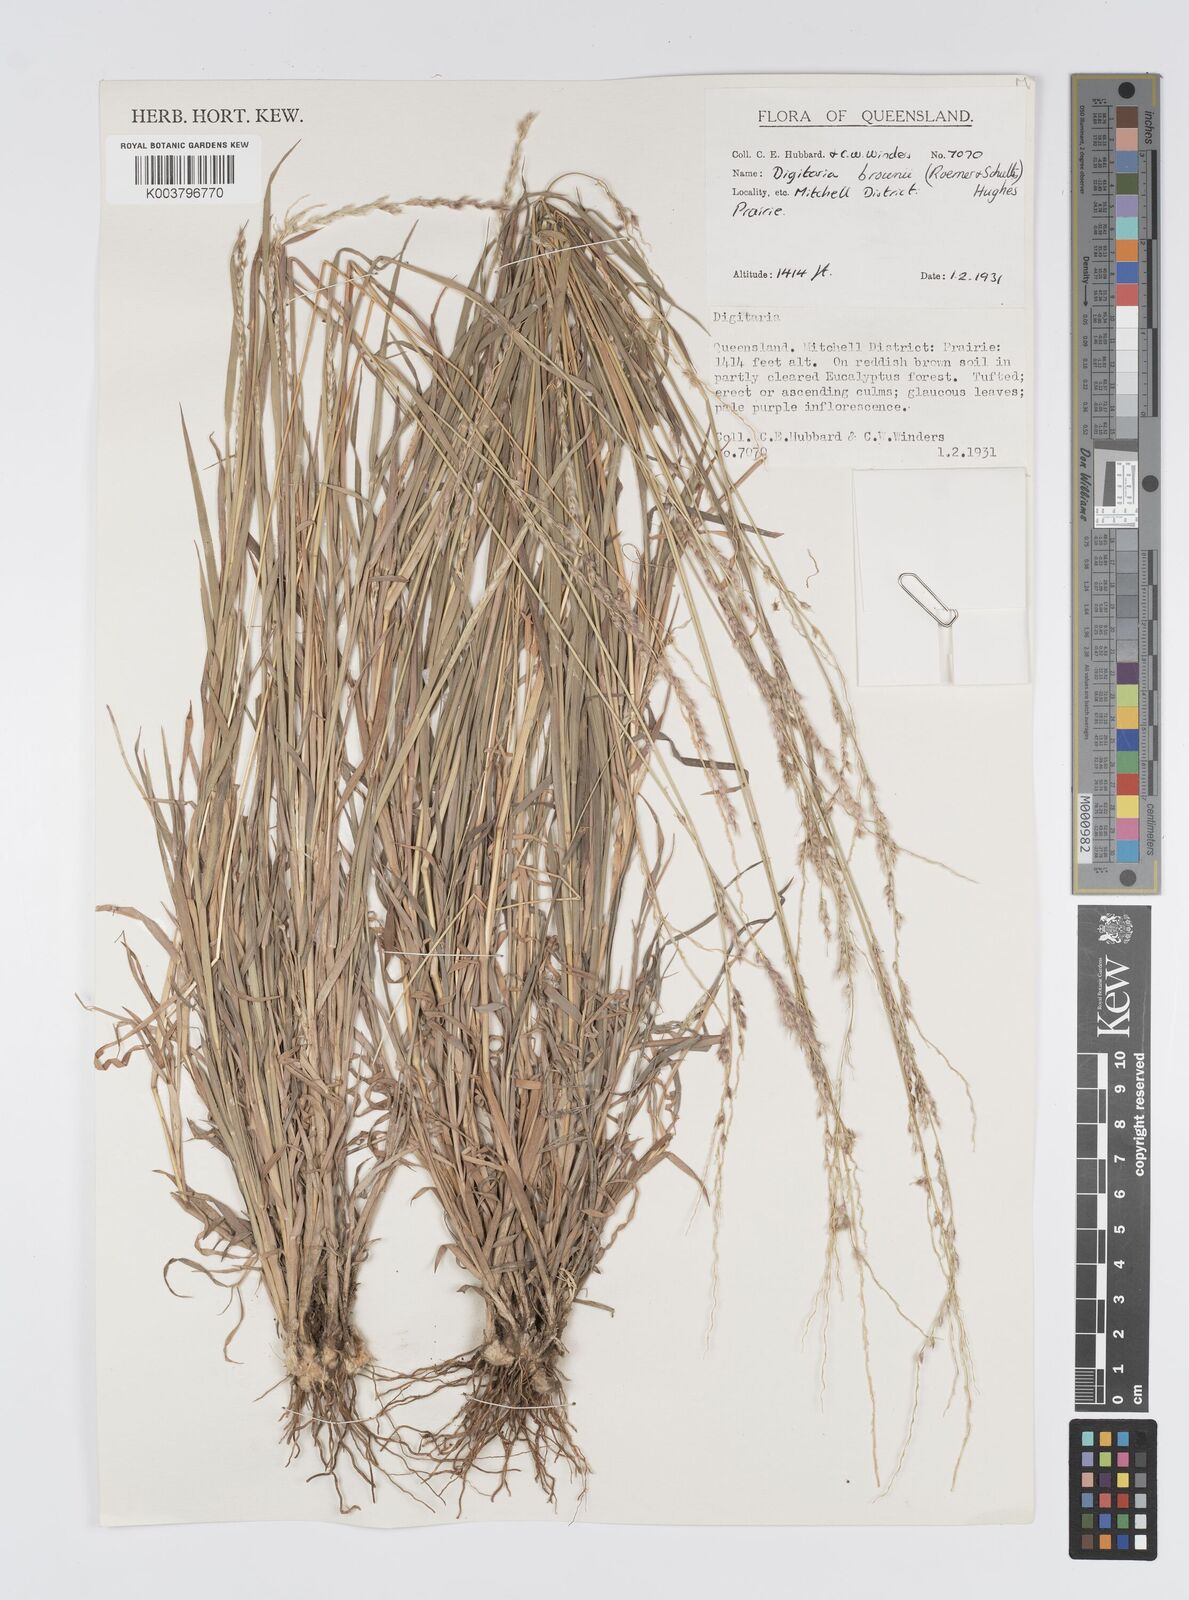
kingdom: Plantae
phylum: Tracheophyta
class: Liliopsida
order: Poales
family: Poaceae
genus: Digitaria
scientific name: Digitaria brownii
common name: Cotton grass
